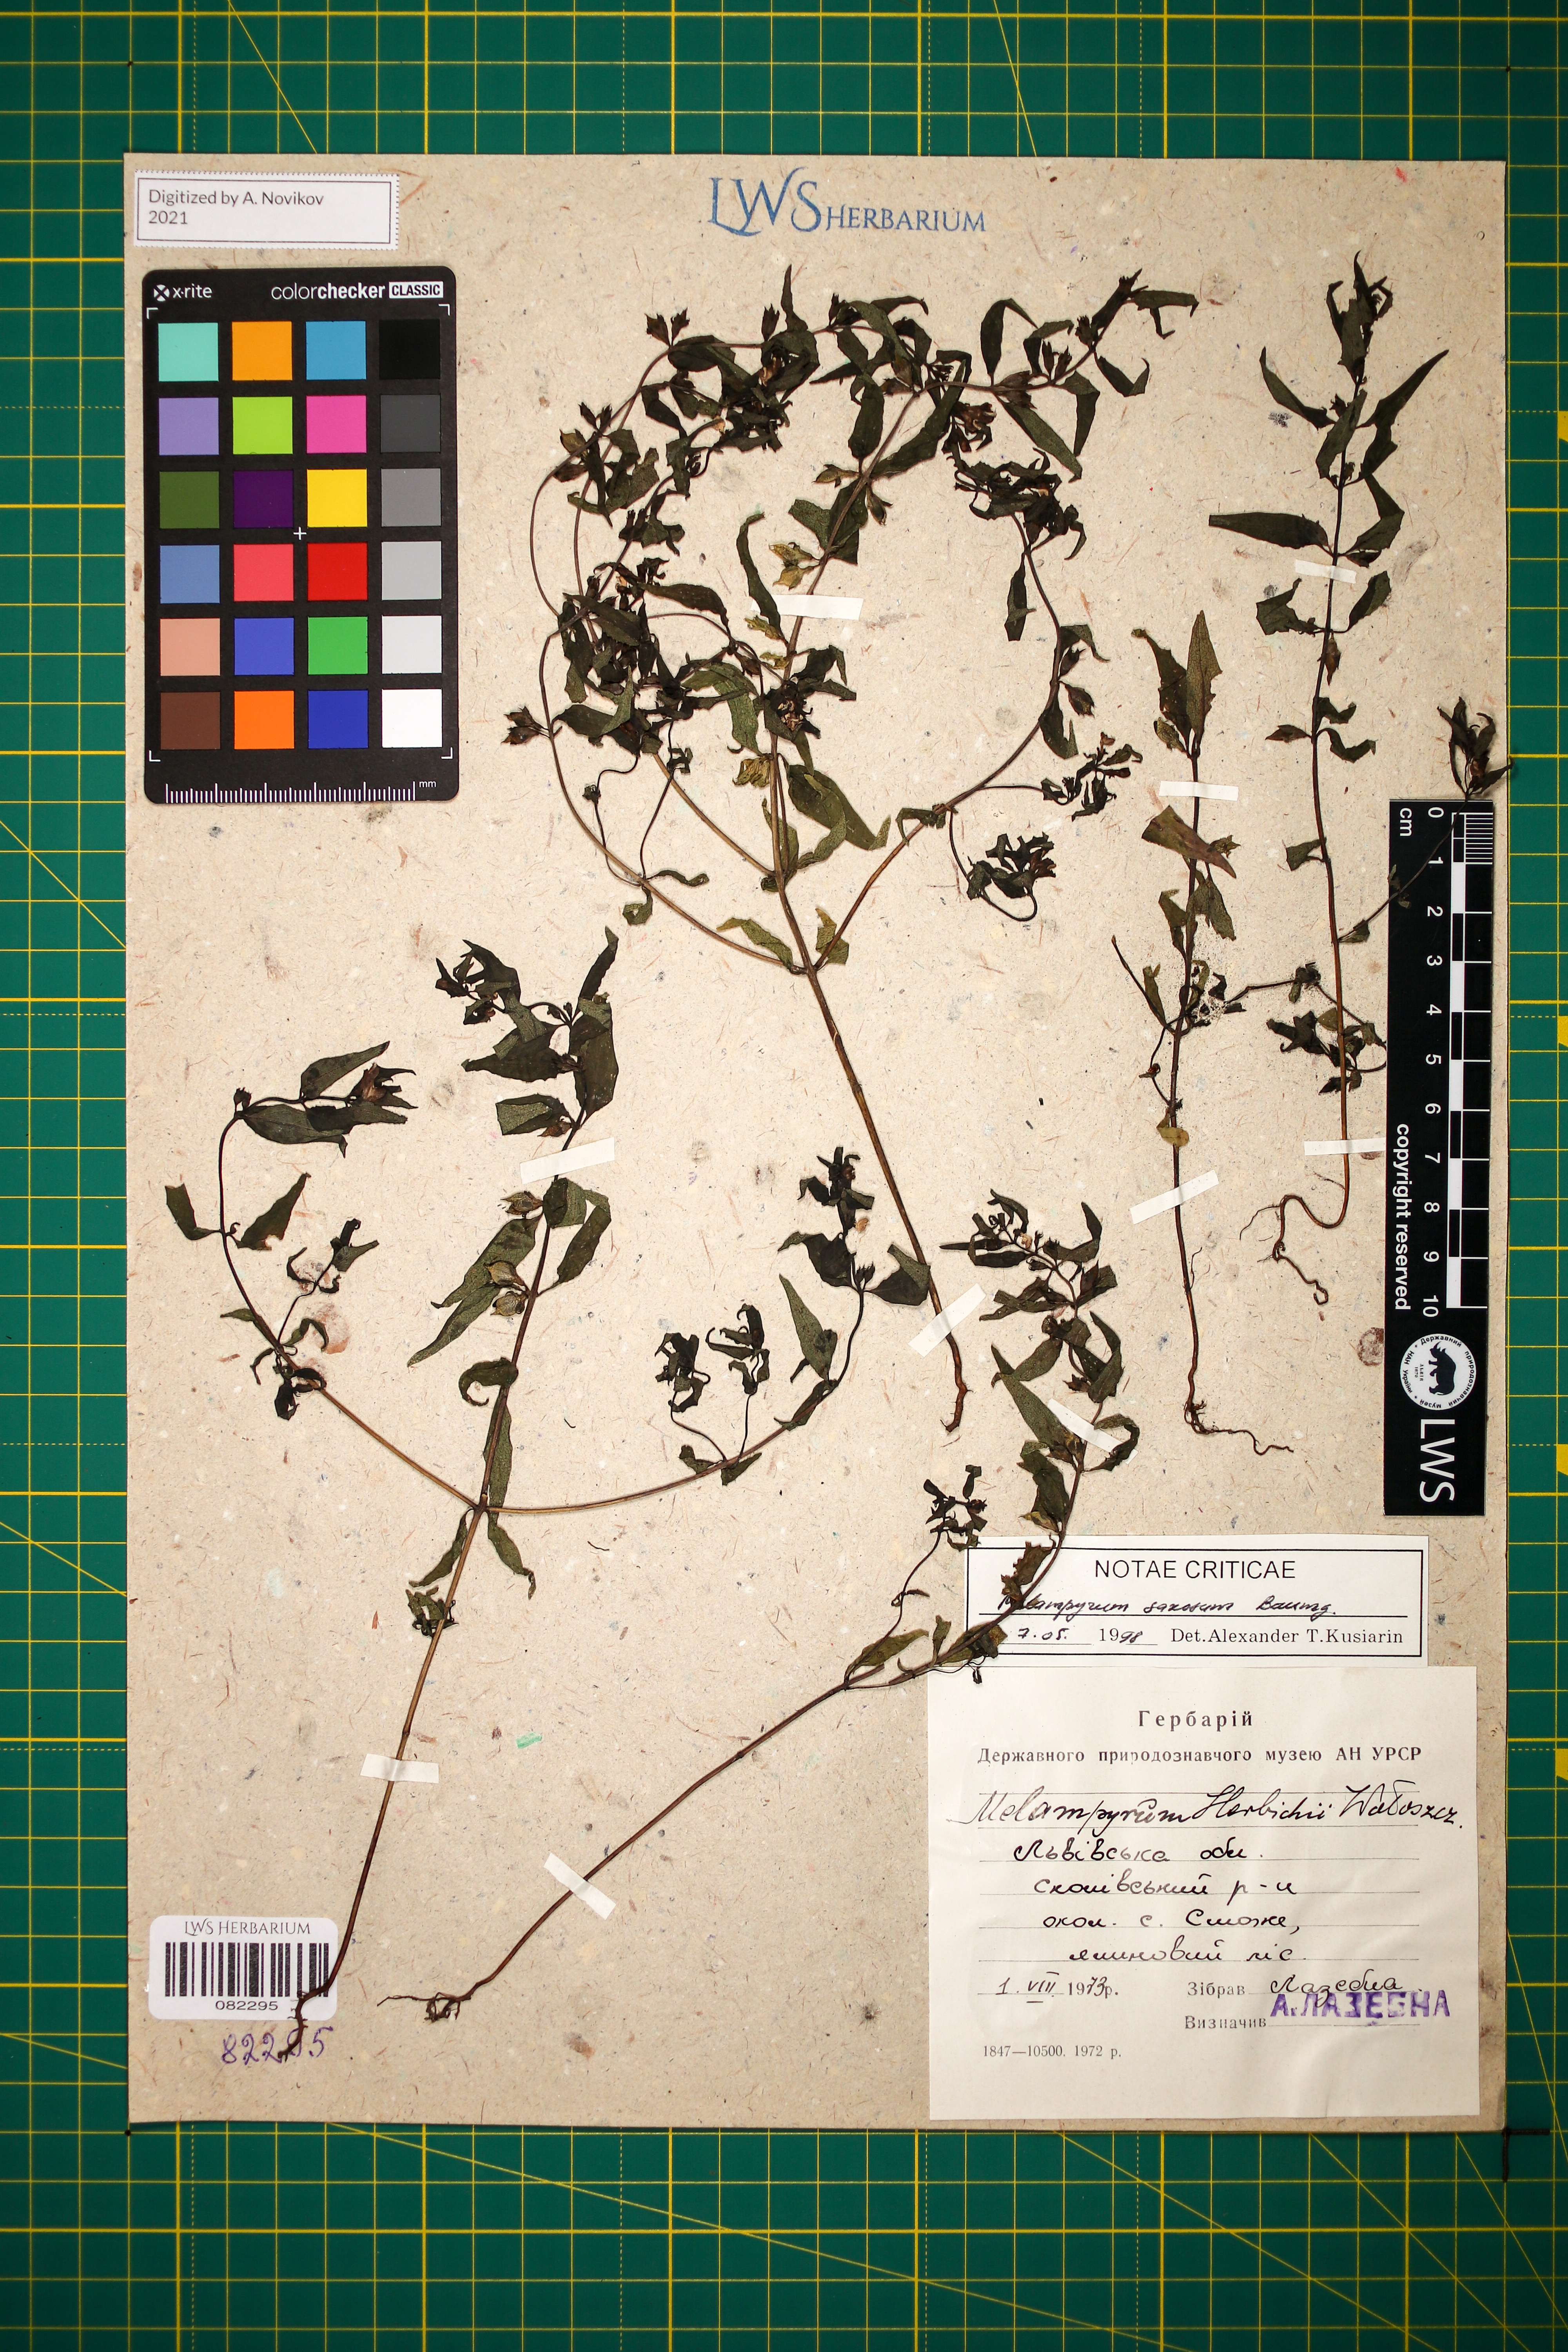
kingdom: Plantae
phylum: Tracheophyta
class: Magnoliopsida
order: Lamiales
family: Orobanchaceae
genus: Melampyrum
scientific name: Melampyrum saxosum
